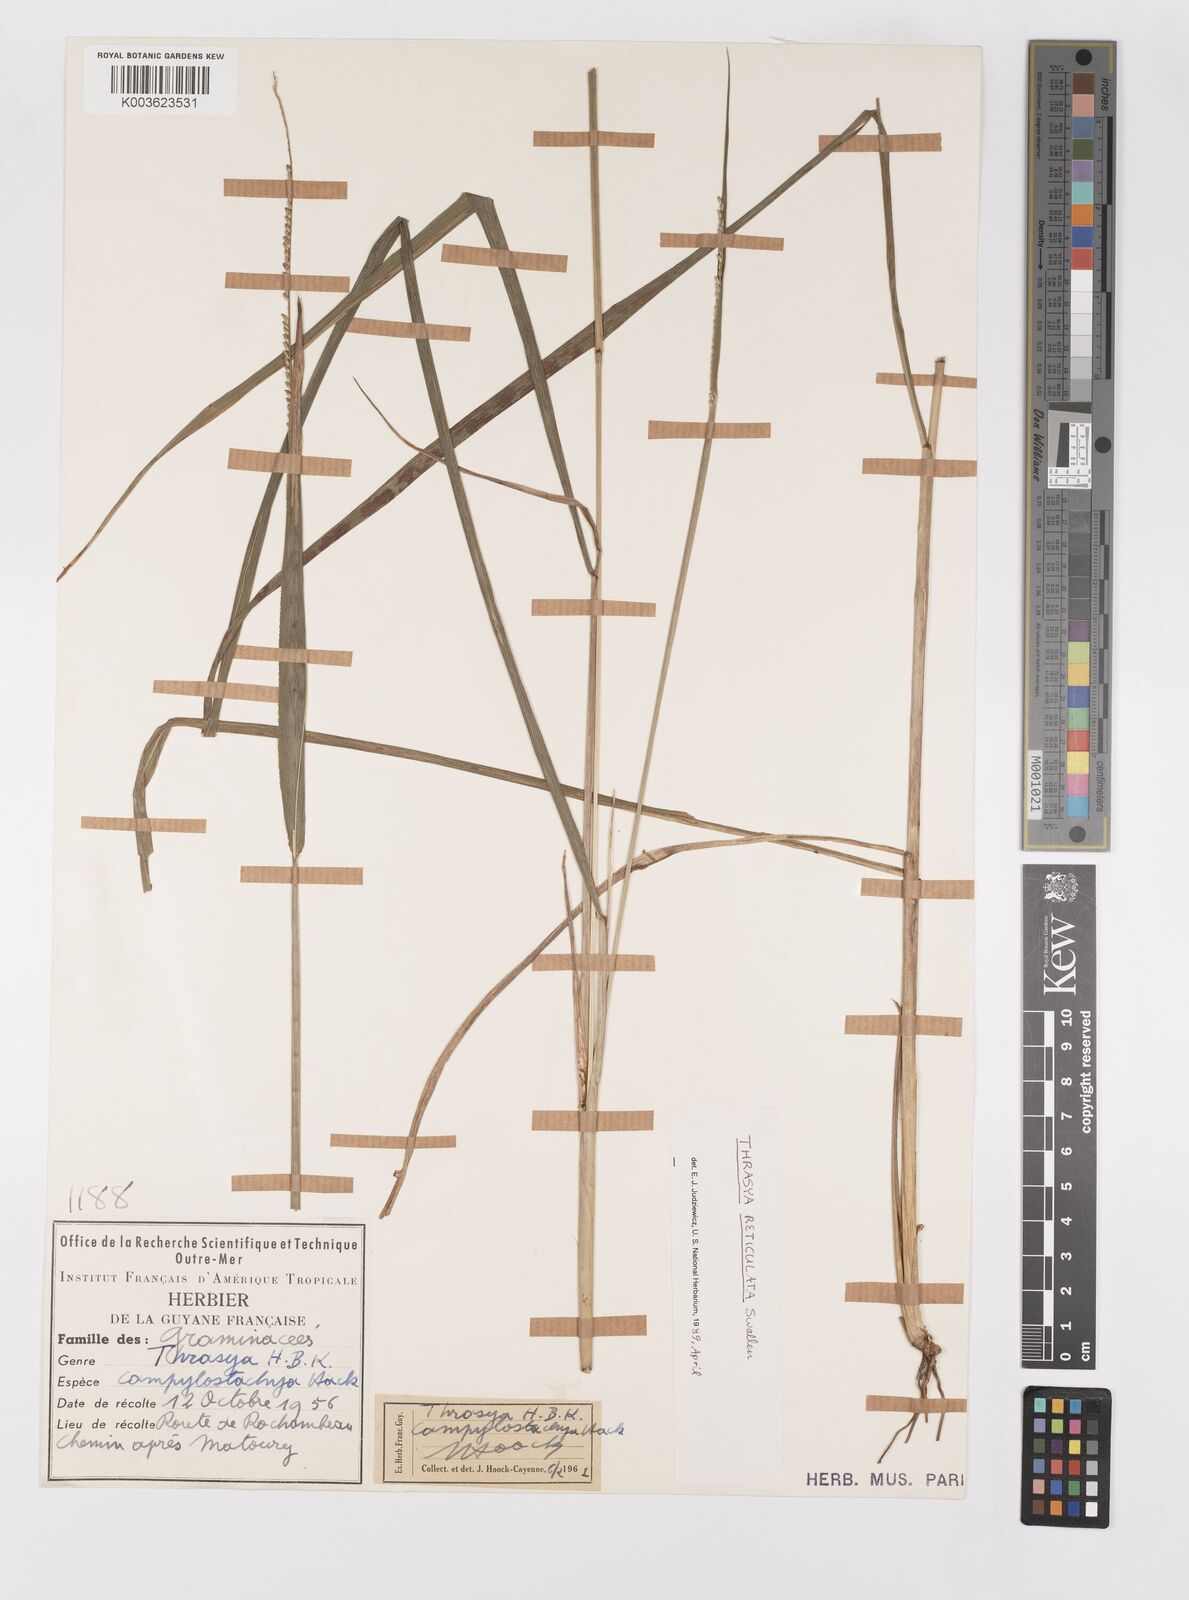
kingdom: Plantae
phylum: Tracheophyta
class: Liliopsida
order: Poales
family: Poaceae
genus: Paspalum
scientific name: Paspalum cinerascens
